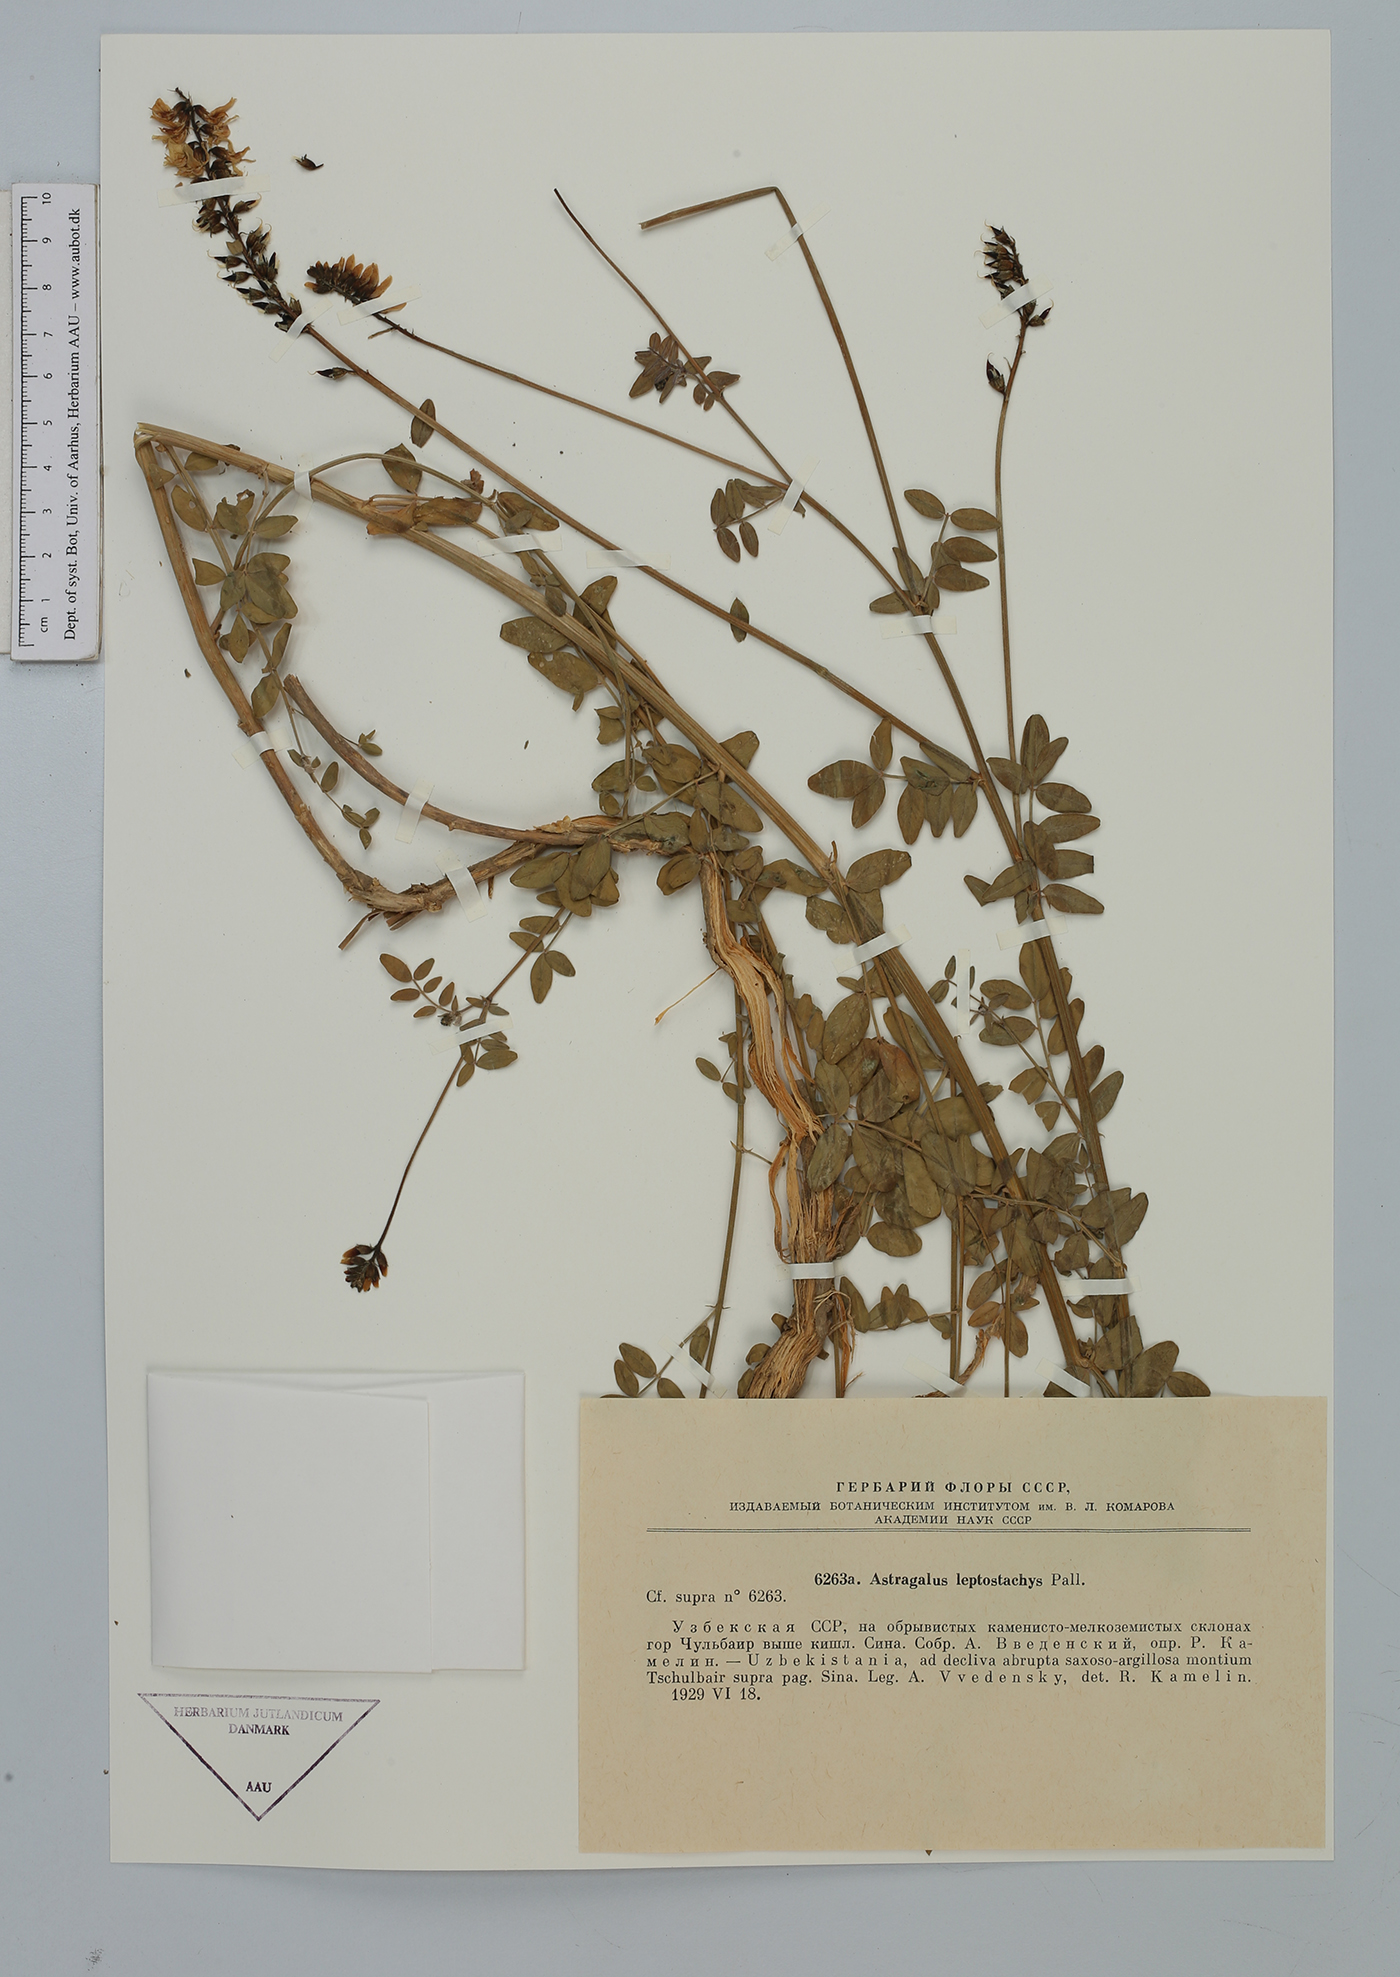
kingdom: Plantae
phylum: Tracheophyta
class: Magnoliopsida
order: Fabales
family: Fabaceae
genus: Astragalus
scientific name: Astragalus sulcatus
